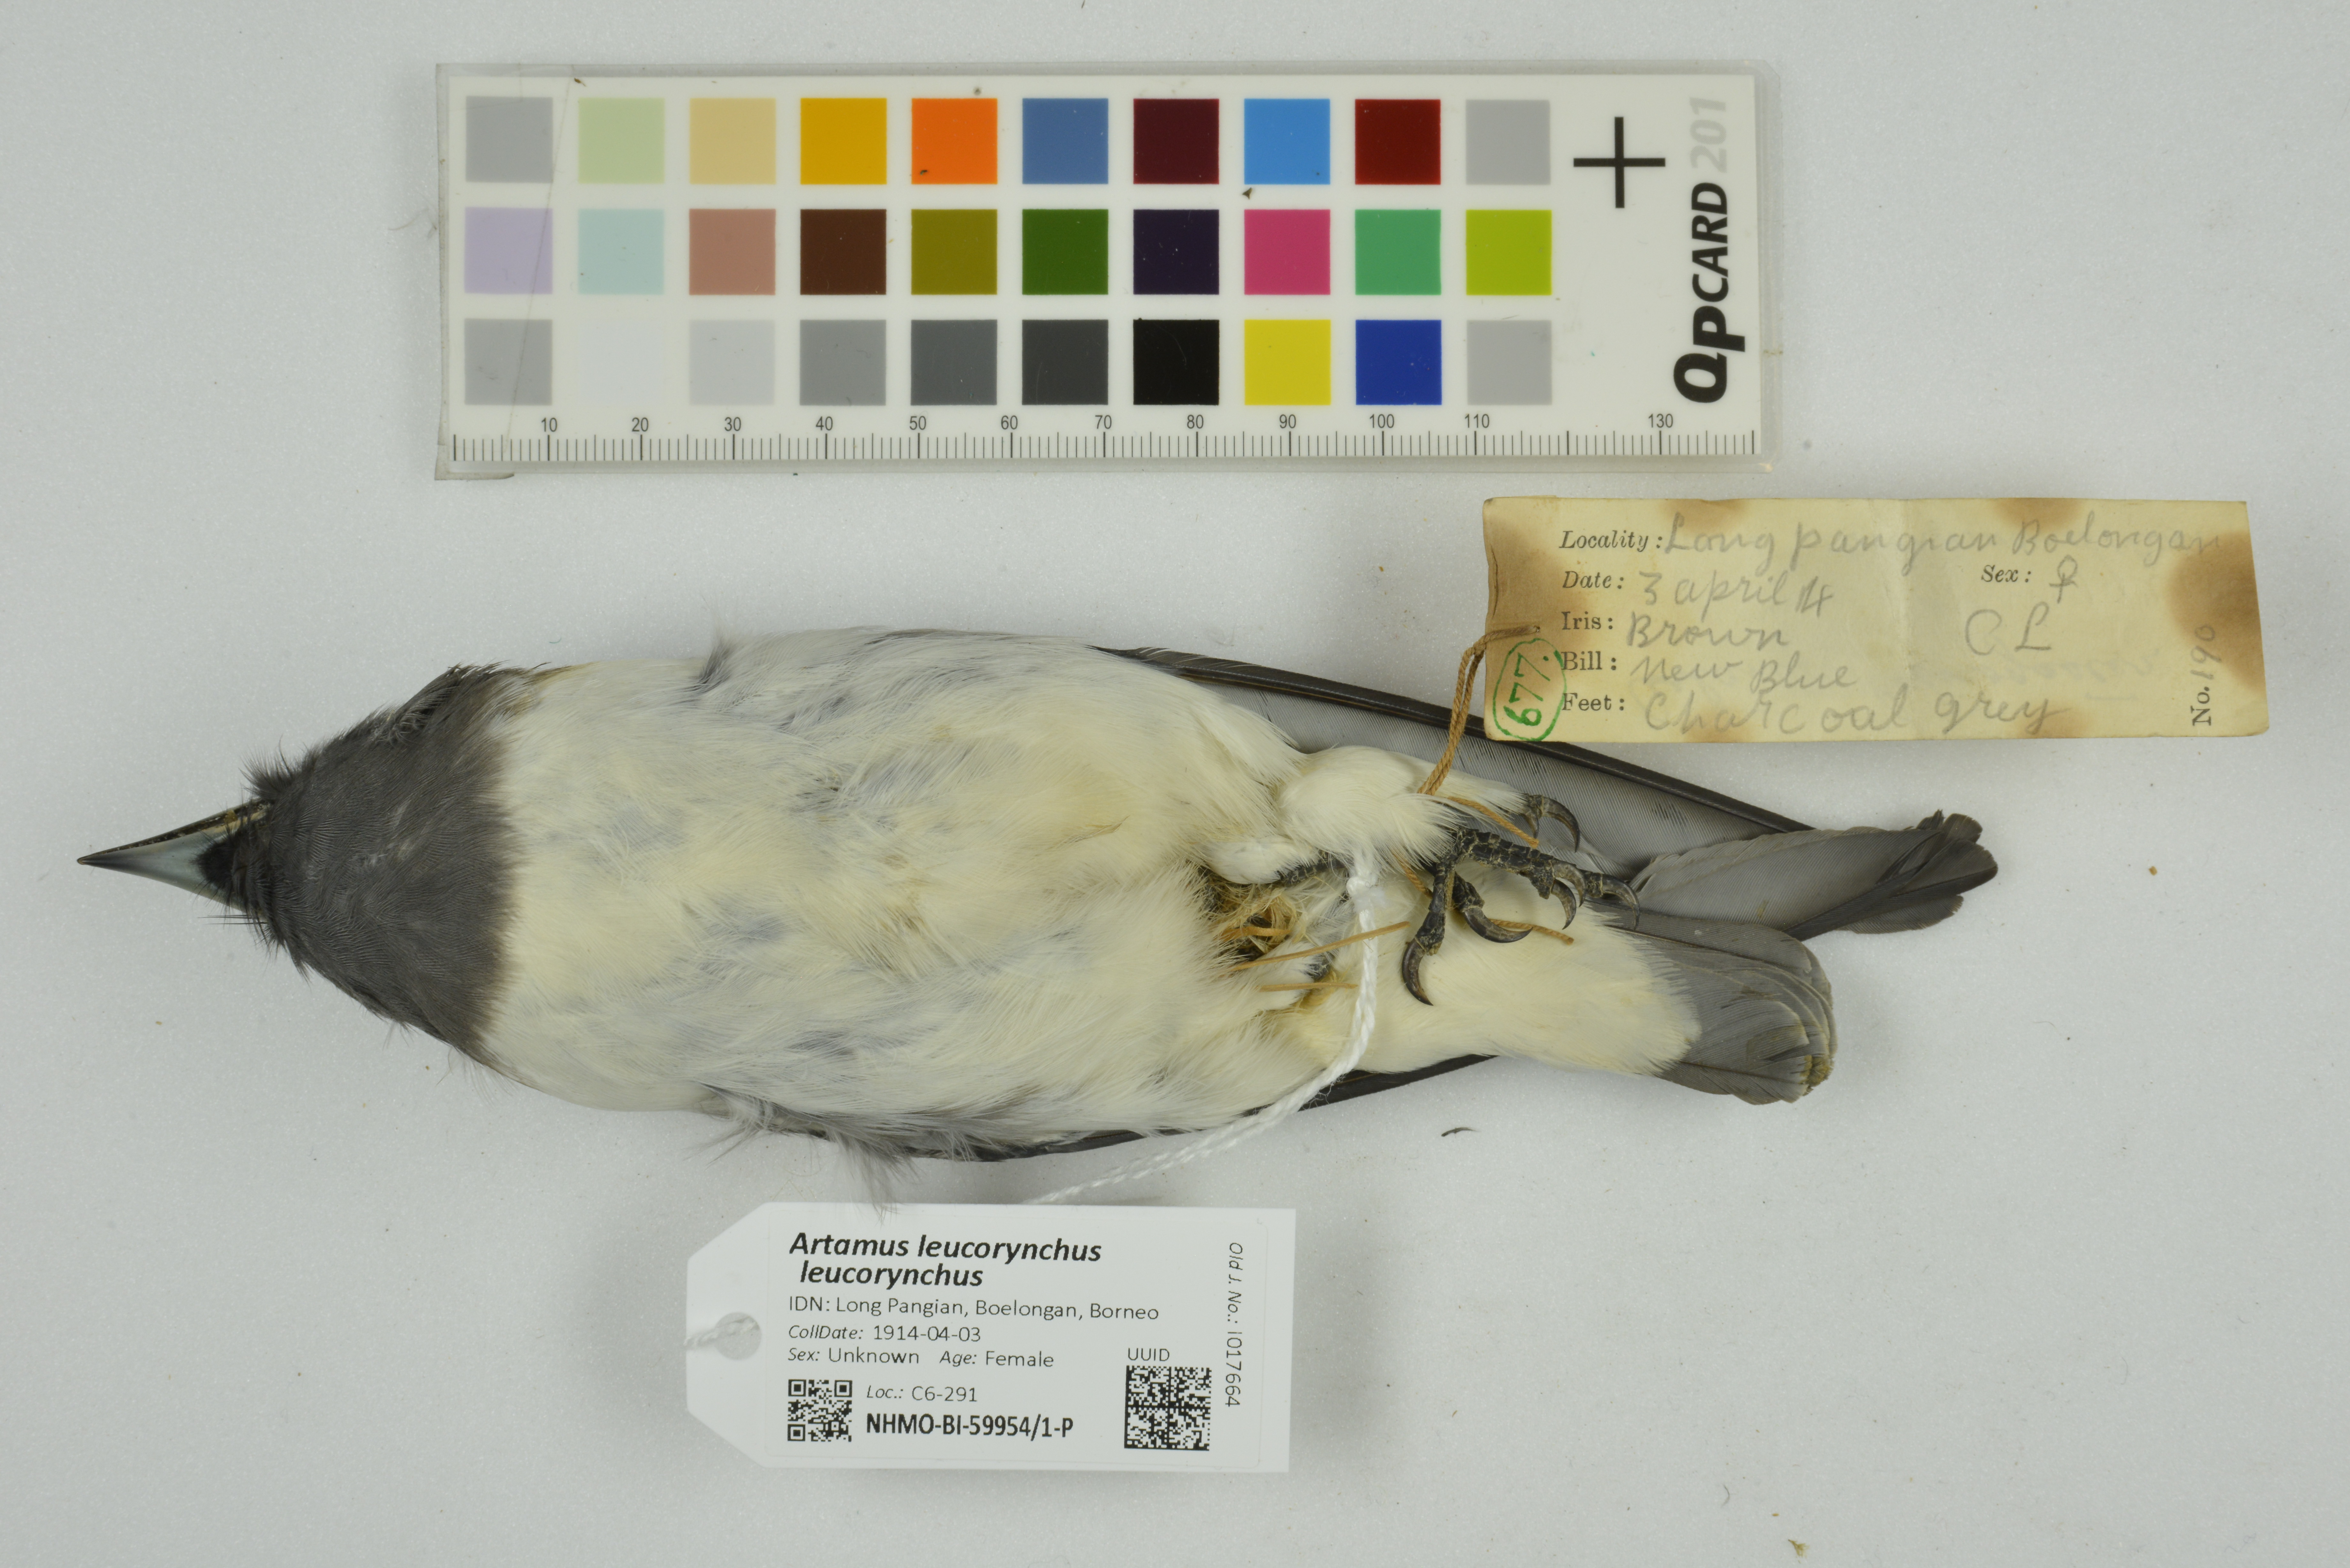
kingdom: Animalia
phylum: Chordata
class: Aves
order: Passeriformes
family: Artamidae
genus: Artamus
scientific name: Artamus leucoryn
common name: White-breasted woodswallow
